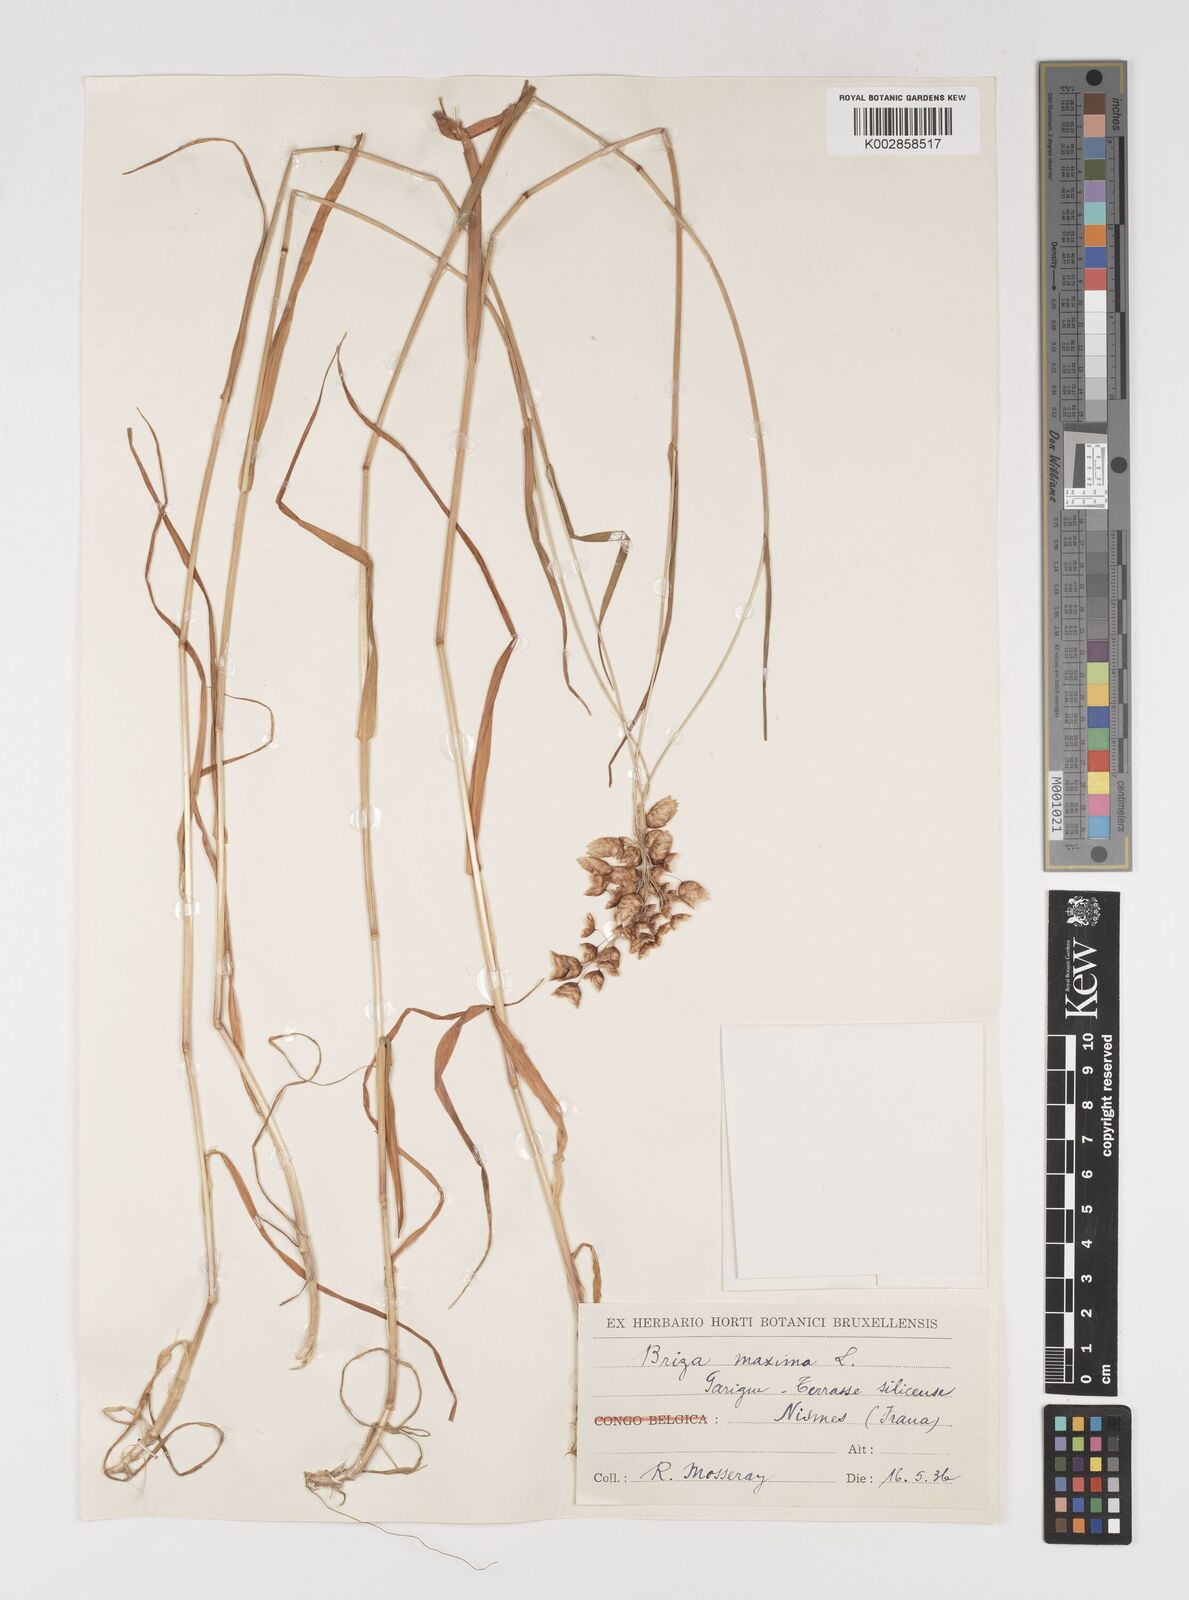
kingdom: Plantae
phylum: Tracheophyta
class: Liliopsida
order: Poales
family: Poaceae
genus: Briza
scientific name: Briza maxima
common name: Big quakinggrass
